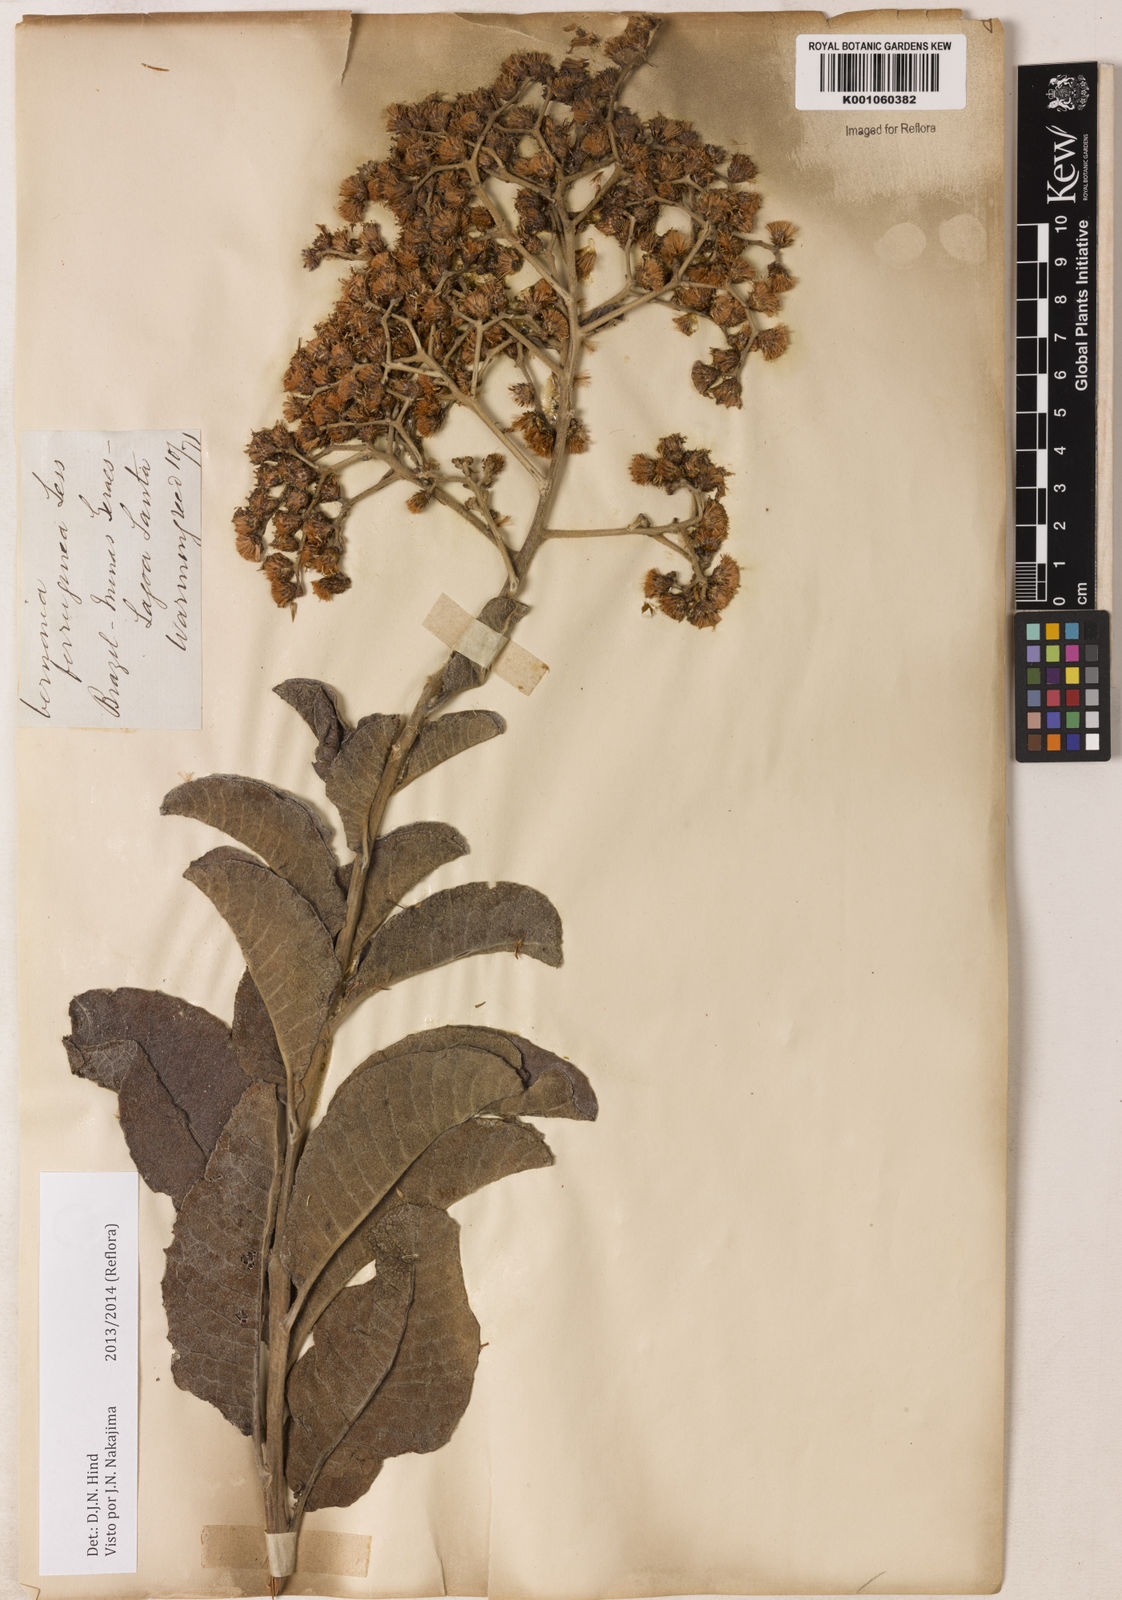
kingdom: Plantae
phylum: Tracheophyta
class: Magnoliopsida
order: Asterales
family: Asteraceae
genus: Vernonanthura
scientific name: Vernonanthura ferruginea
